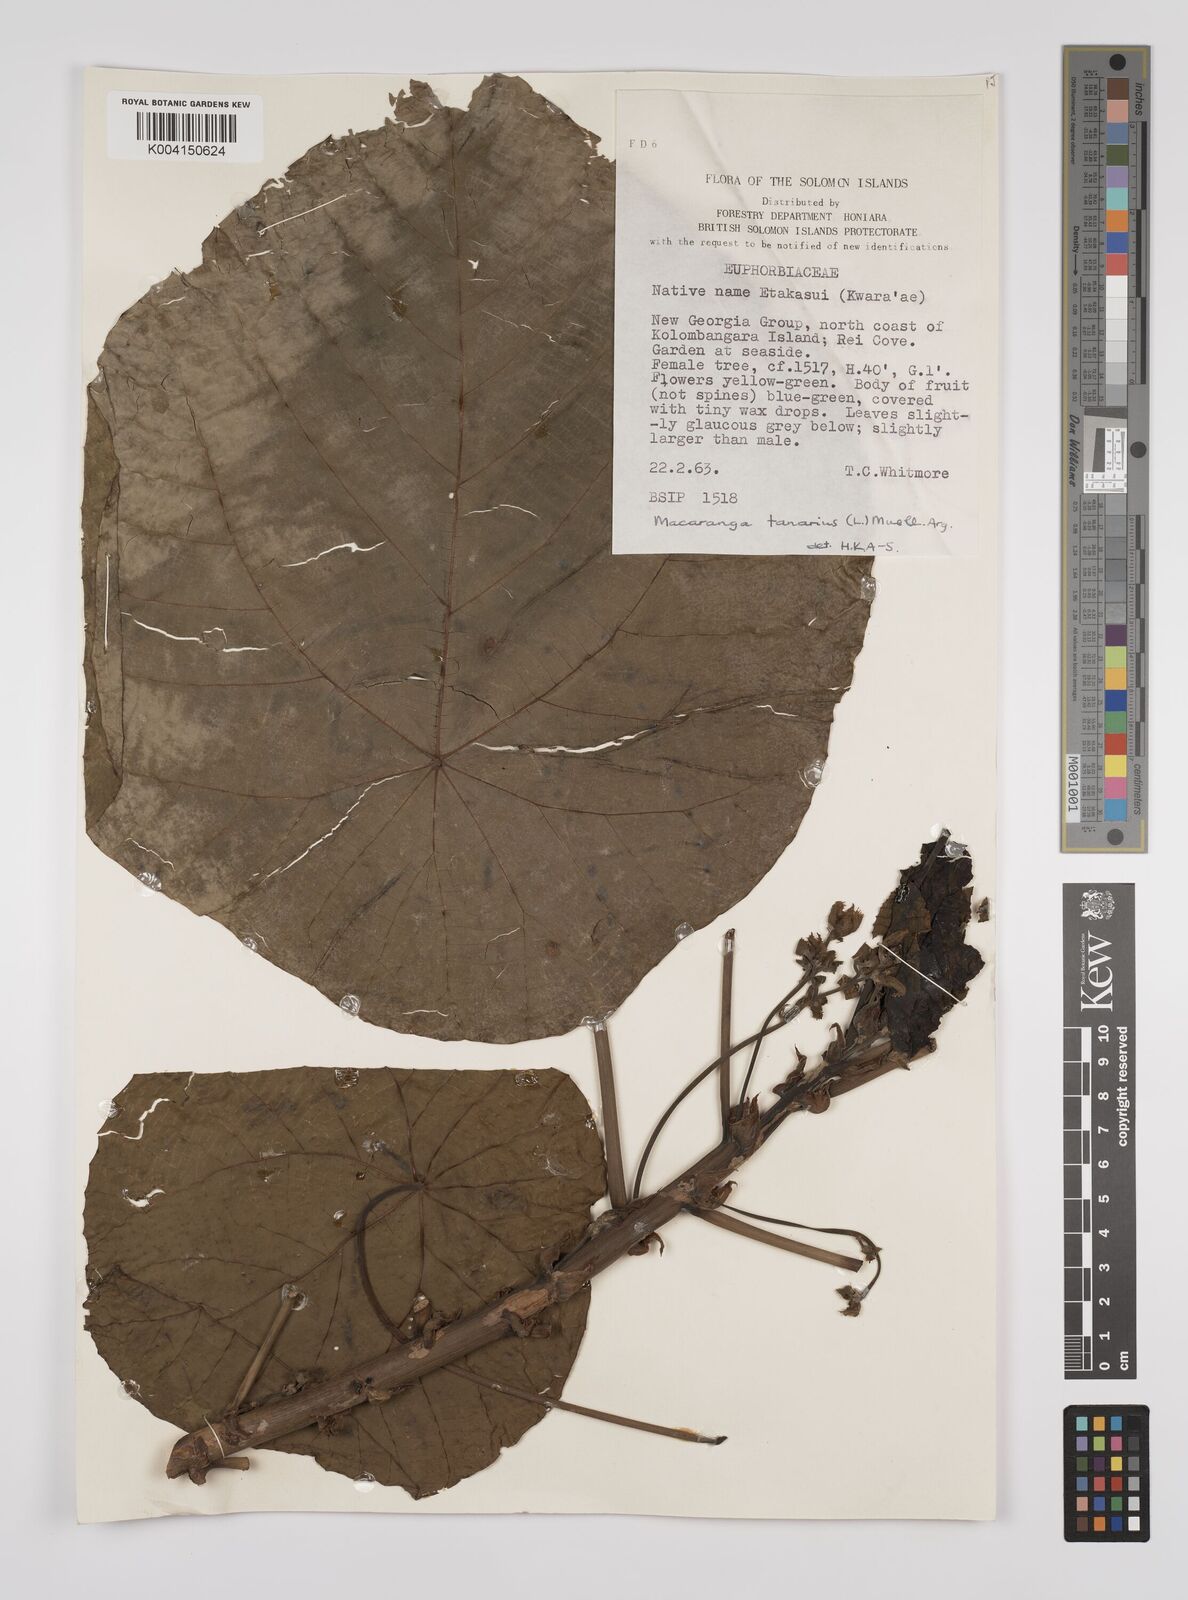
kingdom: Plantae
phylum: Tracheophyta
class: Magnoliopsida
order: Malpighiales
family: Euphorbiaceae
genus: Macaranga
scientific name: Macaranga tanarius
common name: Parasol leaf tree
